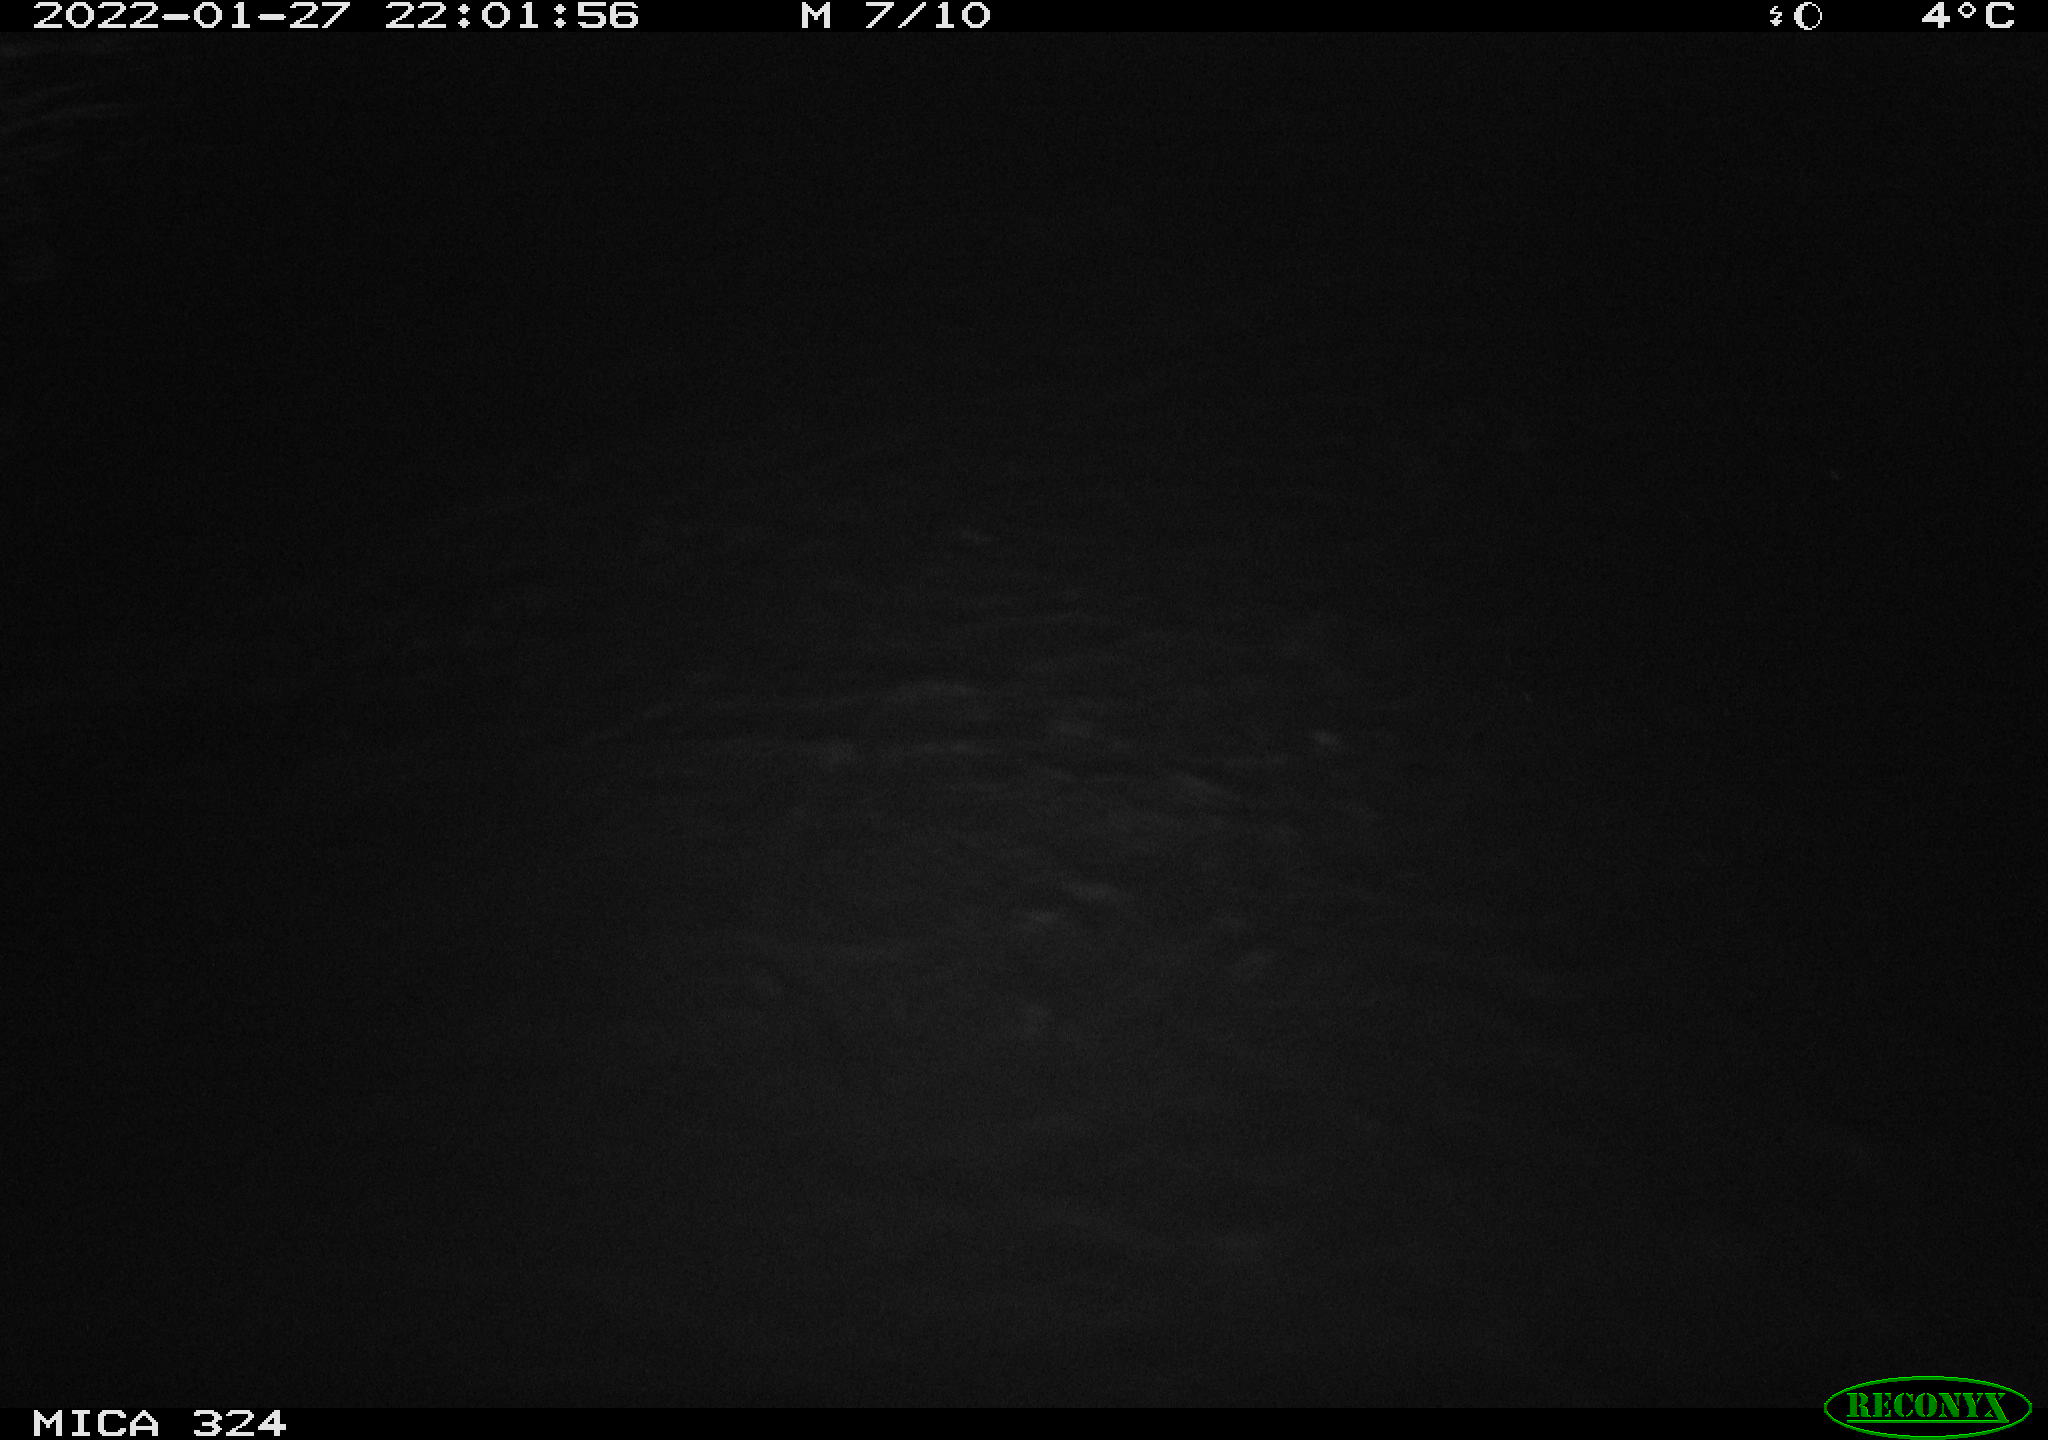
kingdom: Animalia
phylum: Chordata
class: Mammalia
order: Rodentia
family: Cricetidae
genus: Ondatra
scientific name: Ondatra zibethicus
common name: Muskrat
